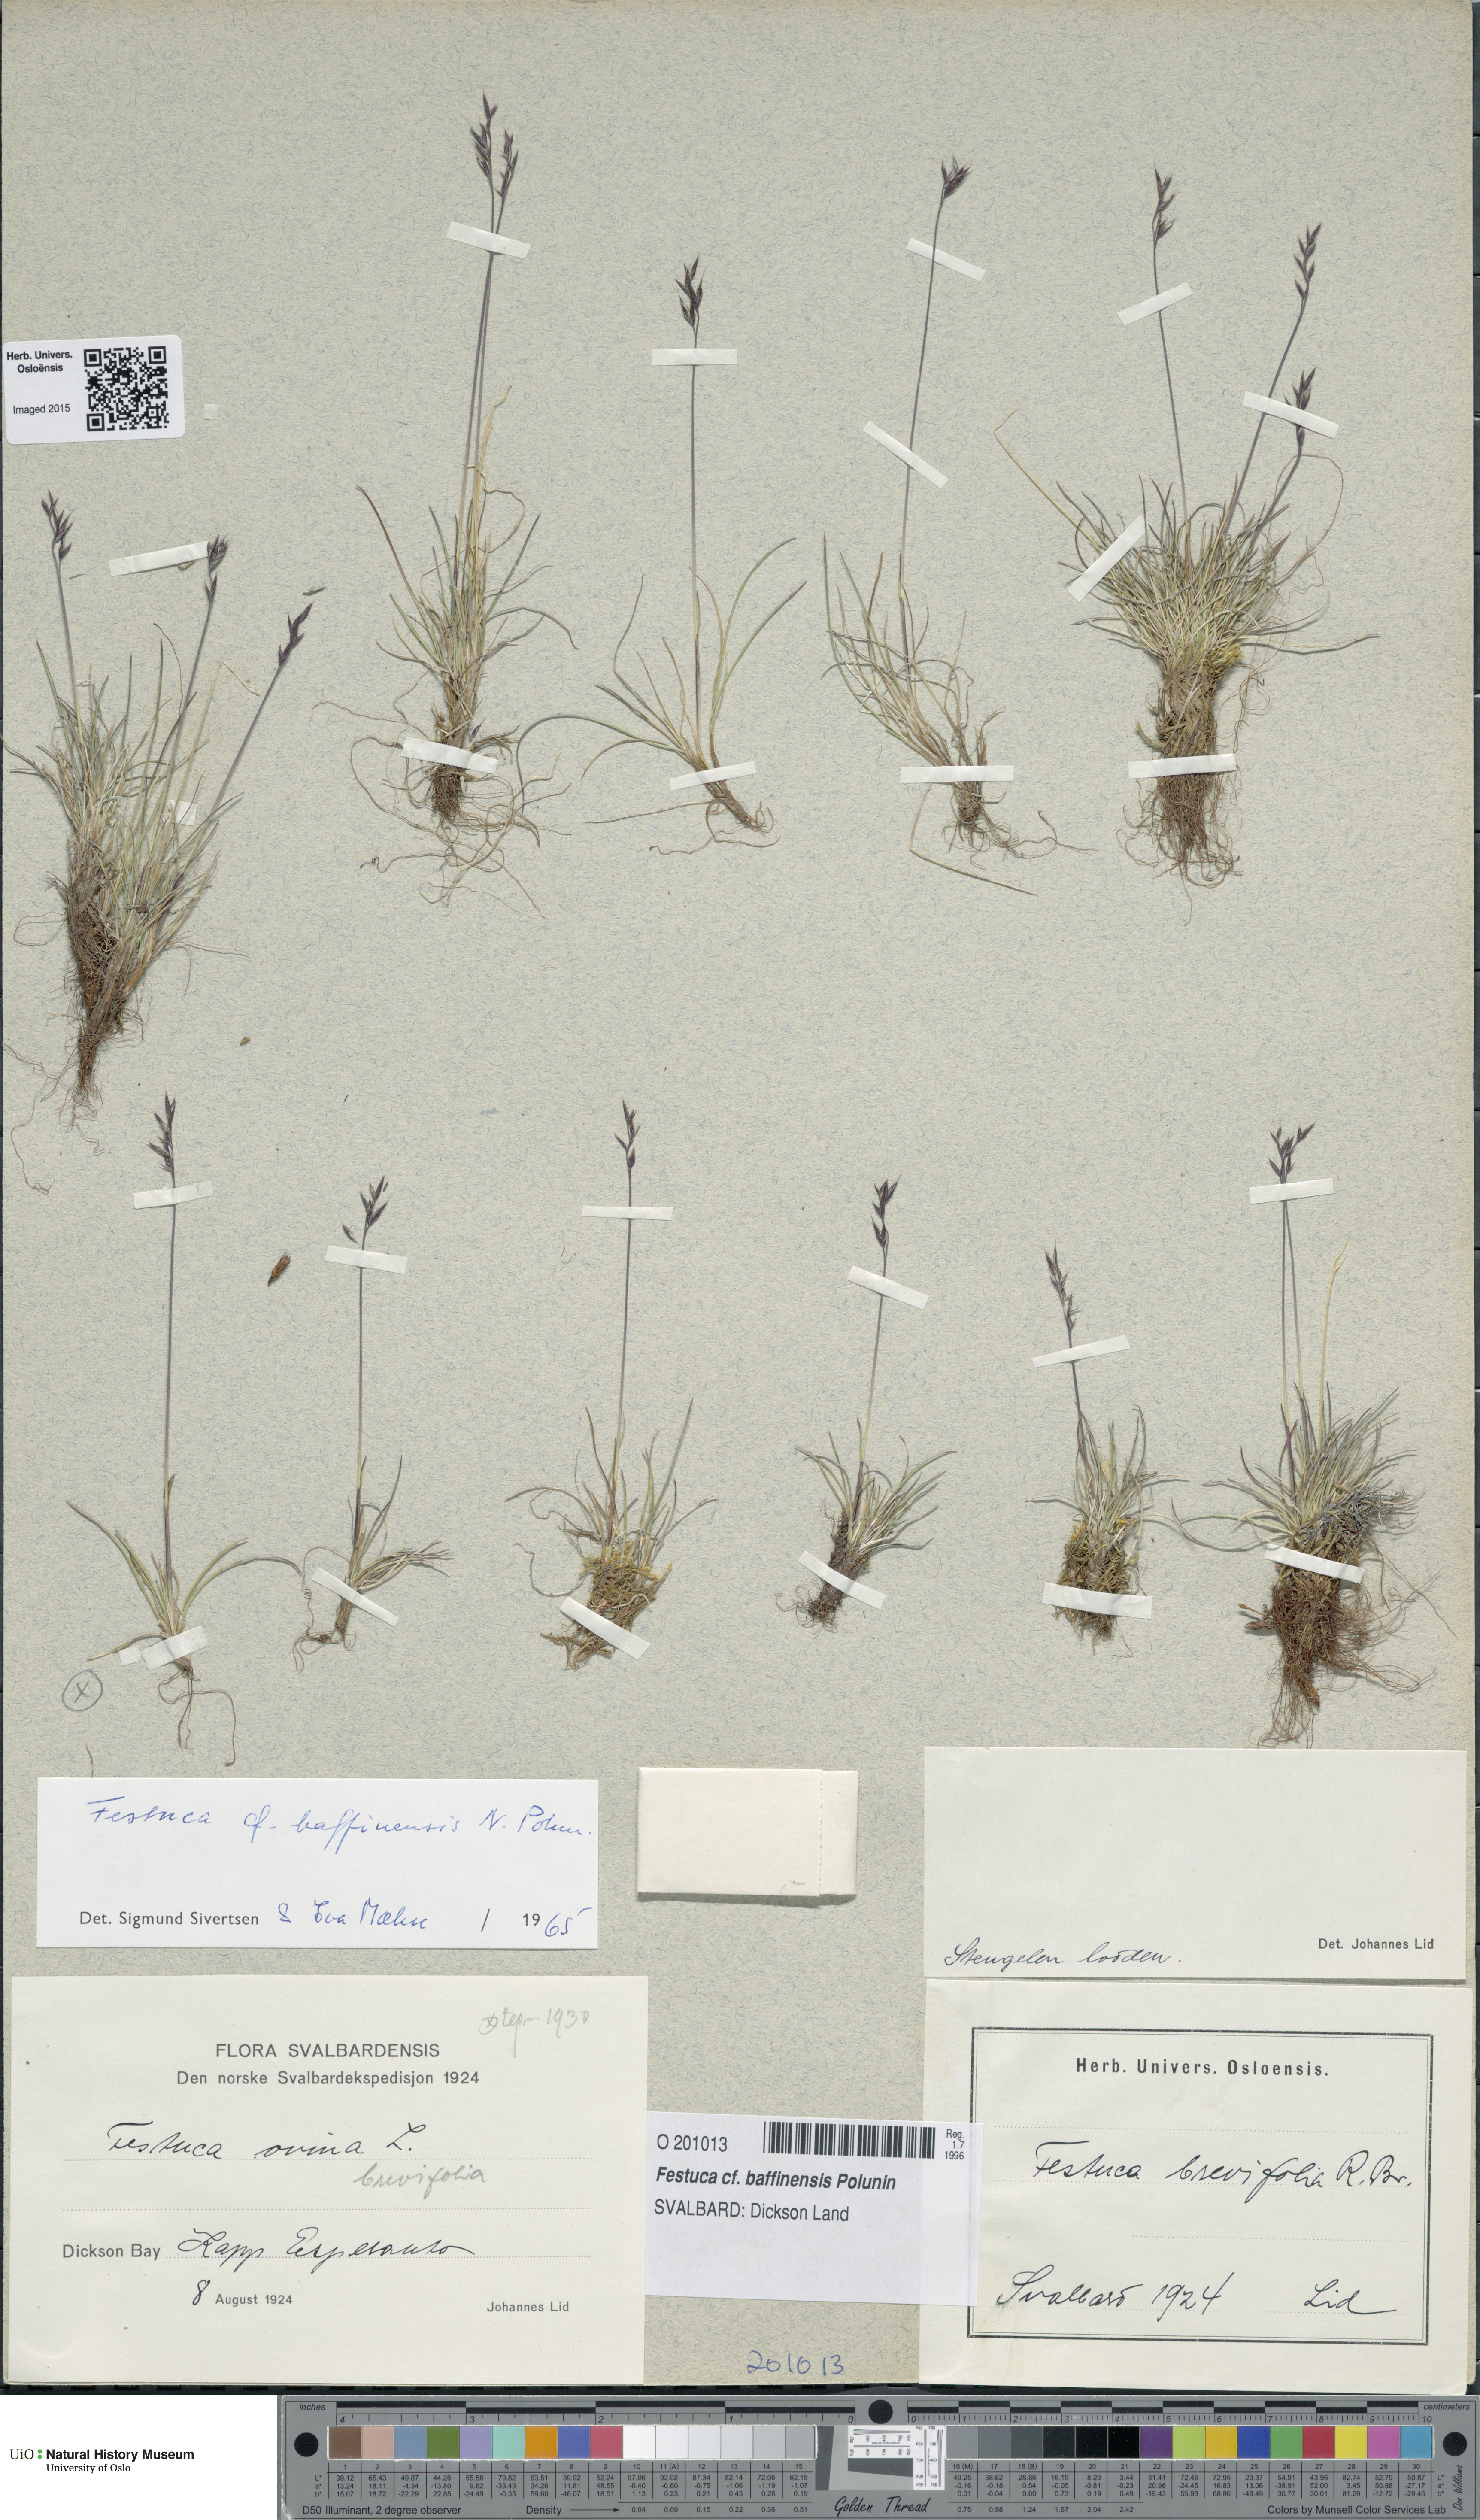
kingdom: Plantae
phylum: Tracheophyta
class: Liliopsida
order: Poales
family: Poaceae
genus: Festuca
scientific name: Festuca baffinensis
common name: Baffin island fescue
